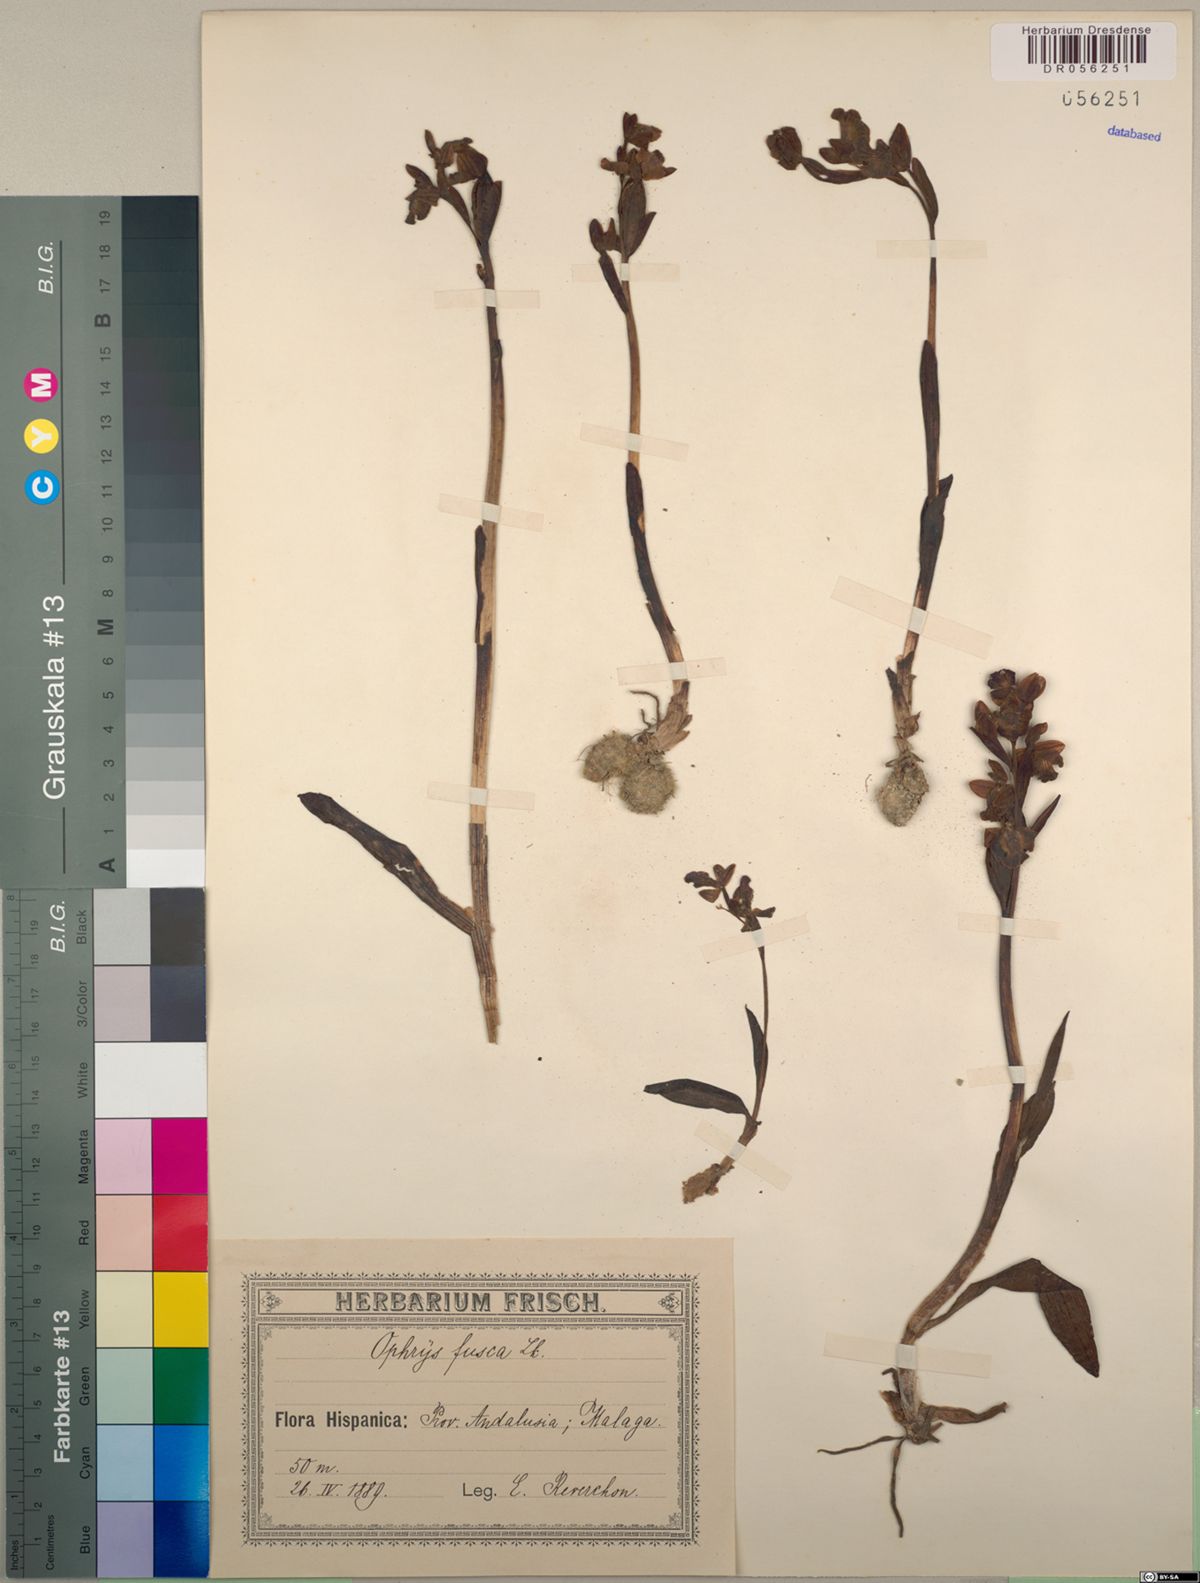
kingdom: Plantae
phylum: Tracheophyta
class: Liliopsida
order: Asparagales
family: Orchidaceae
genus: Ophrys
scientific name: Ophrys fusca
